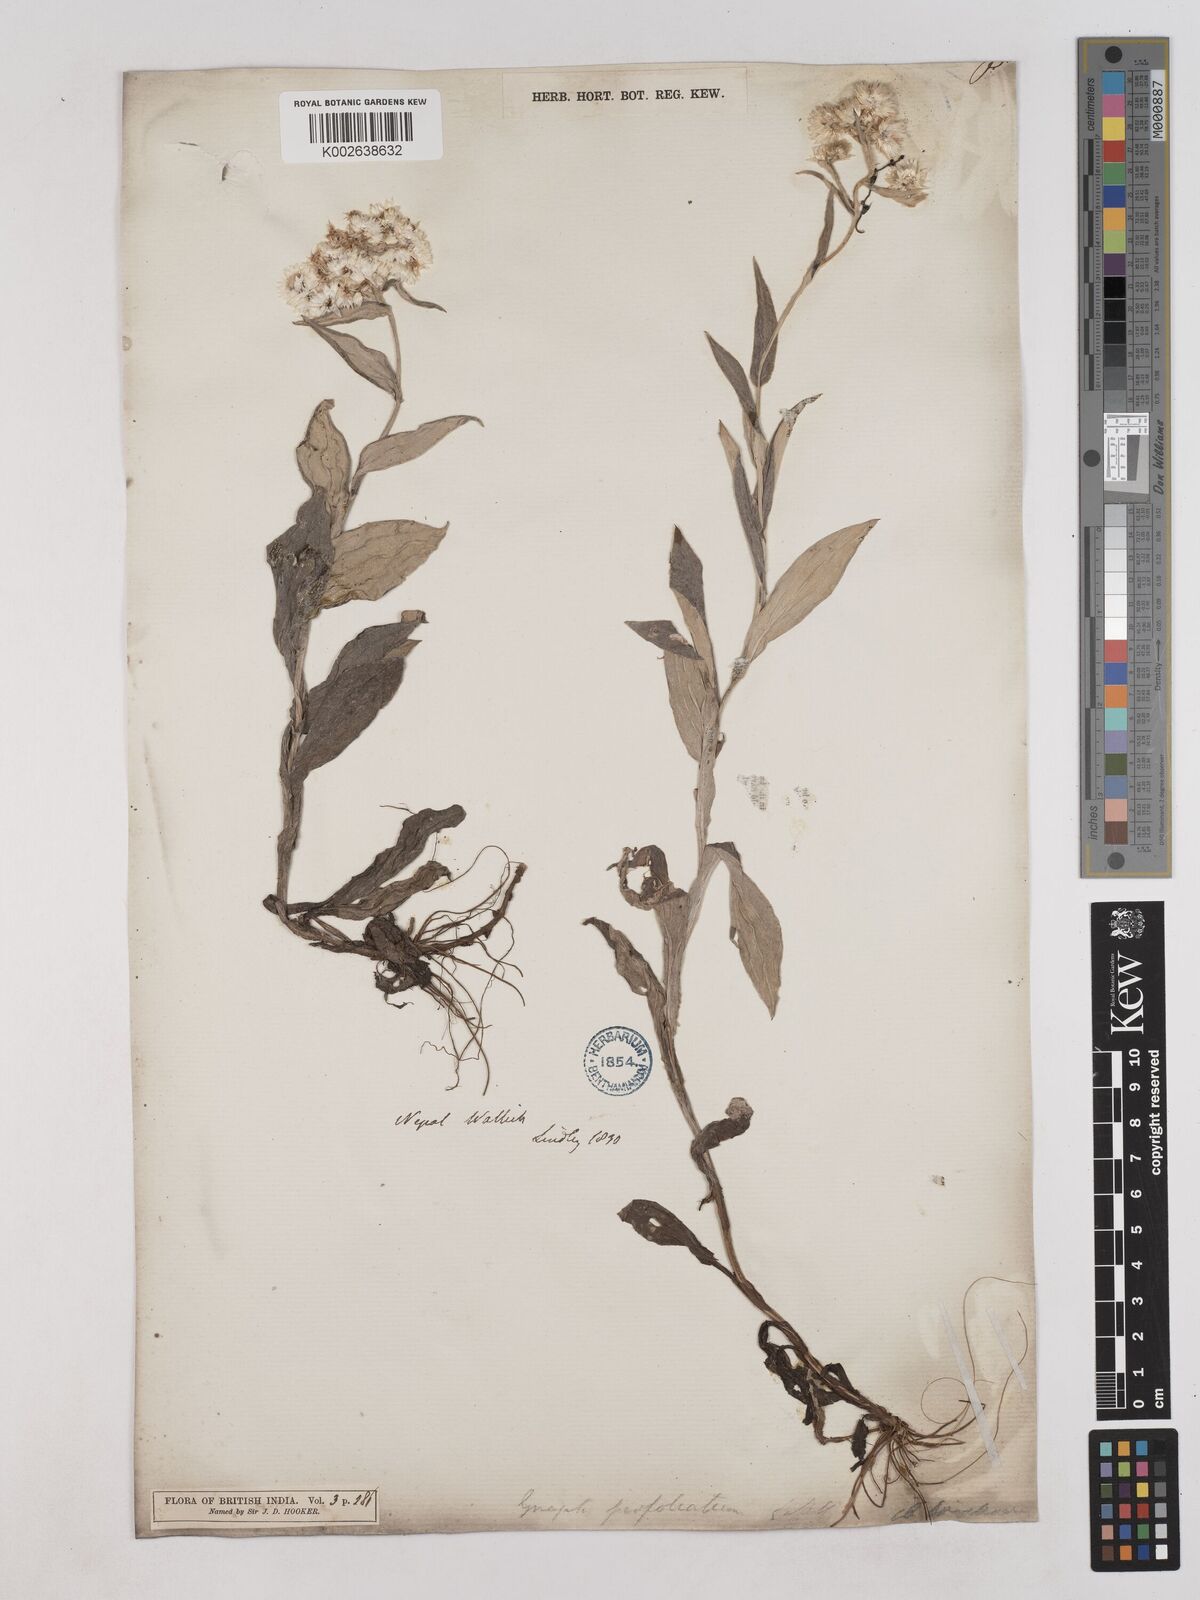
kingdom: Plantae
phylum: Tracheophyta
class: Magnoliopsida
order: Asterales
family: Asteraceae
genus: Anaphalis
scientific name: Anaphalis triplinervis
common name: Pearly everlasting
